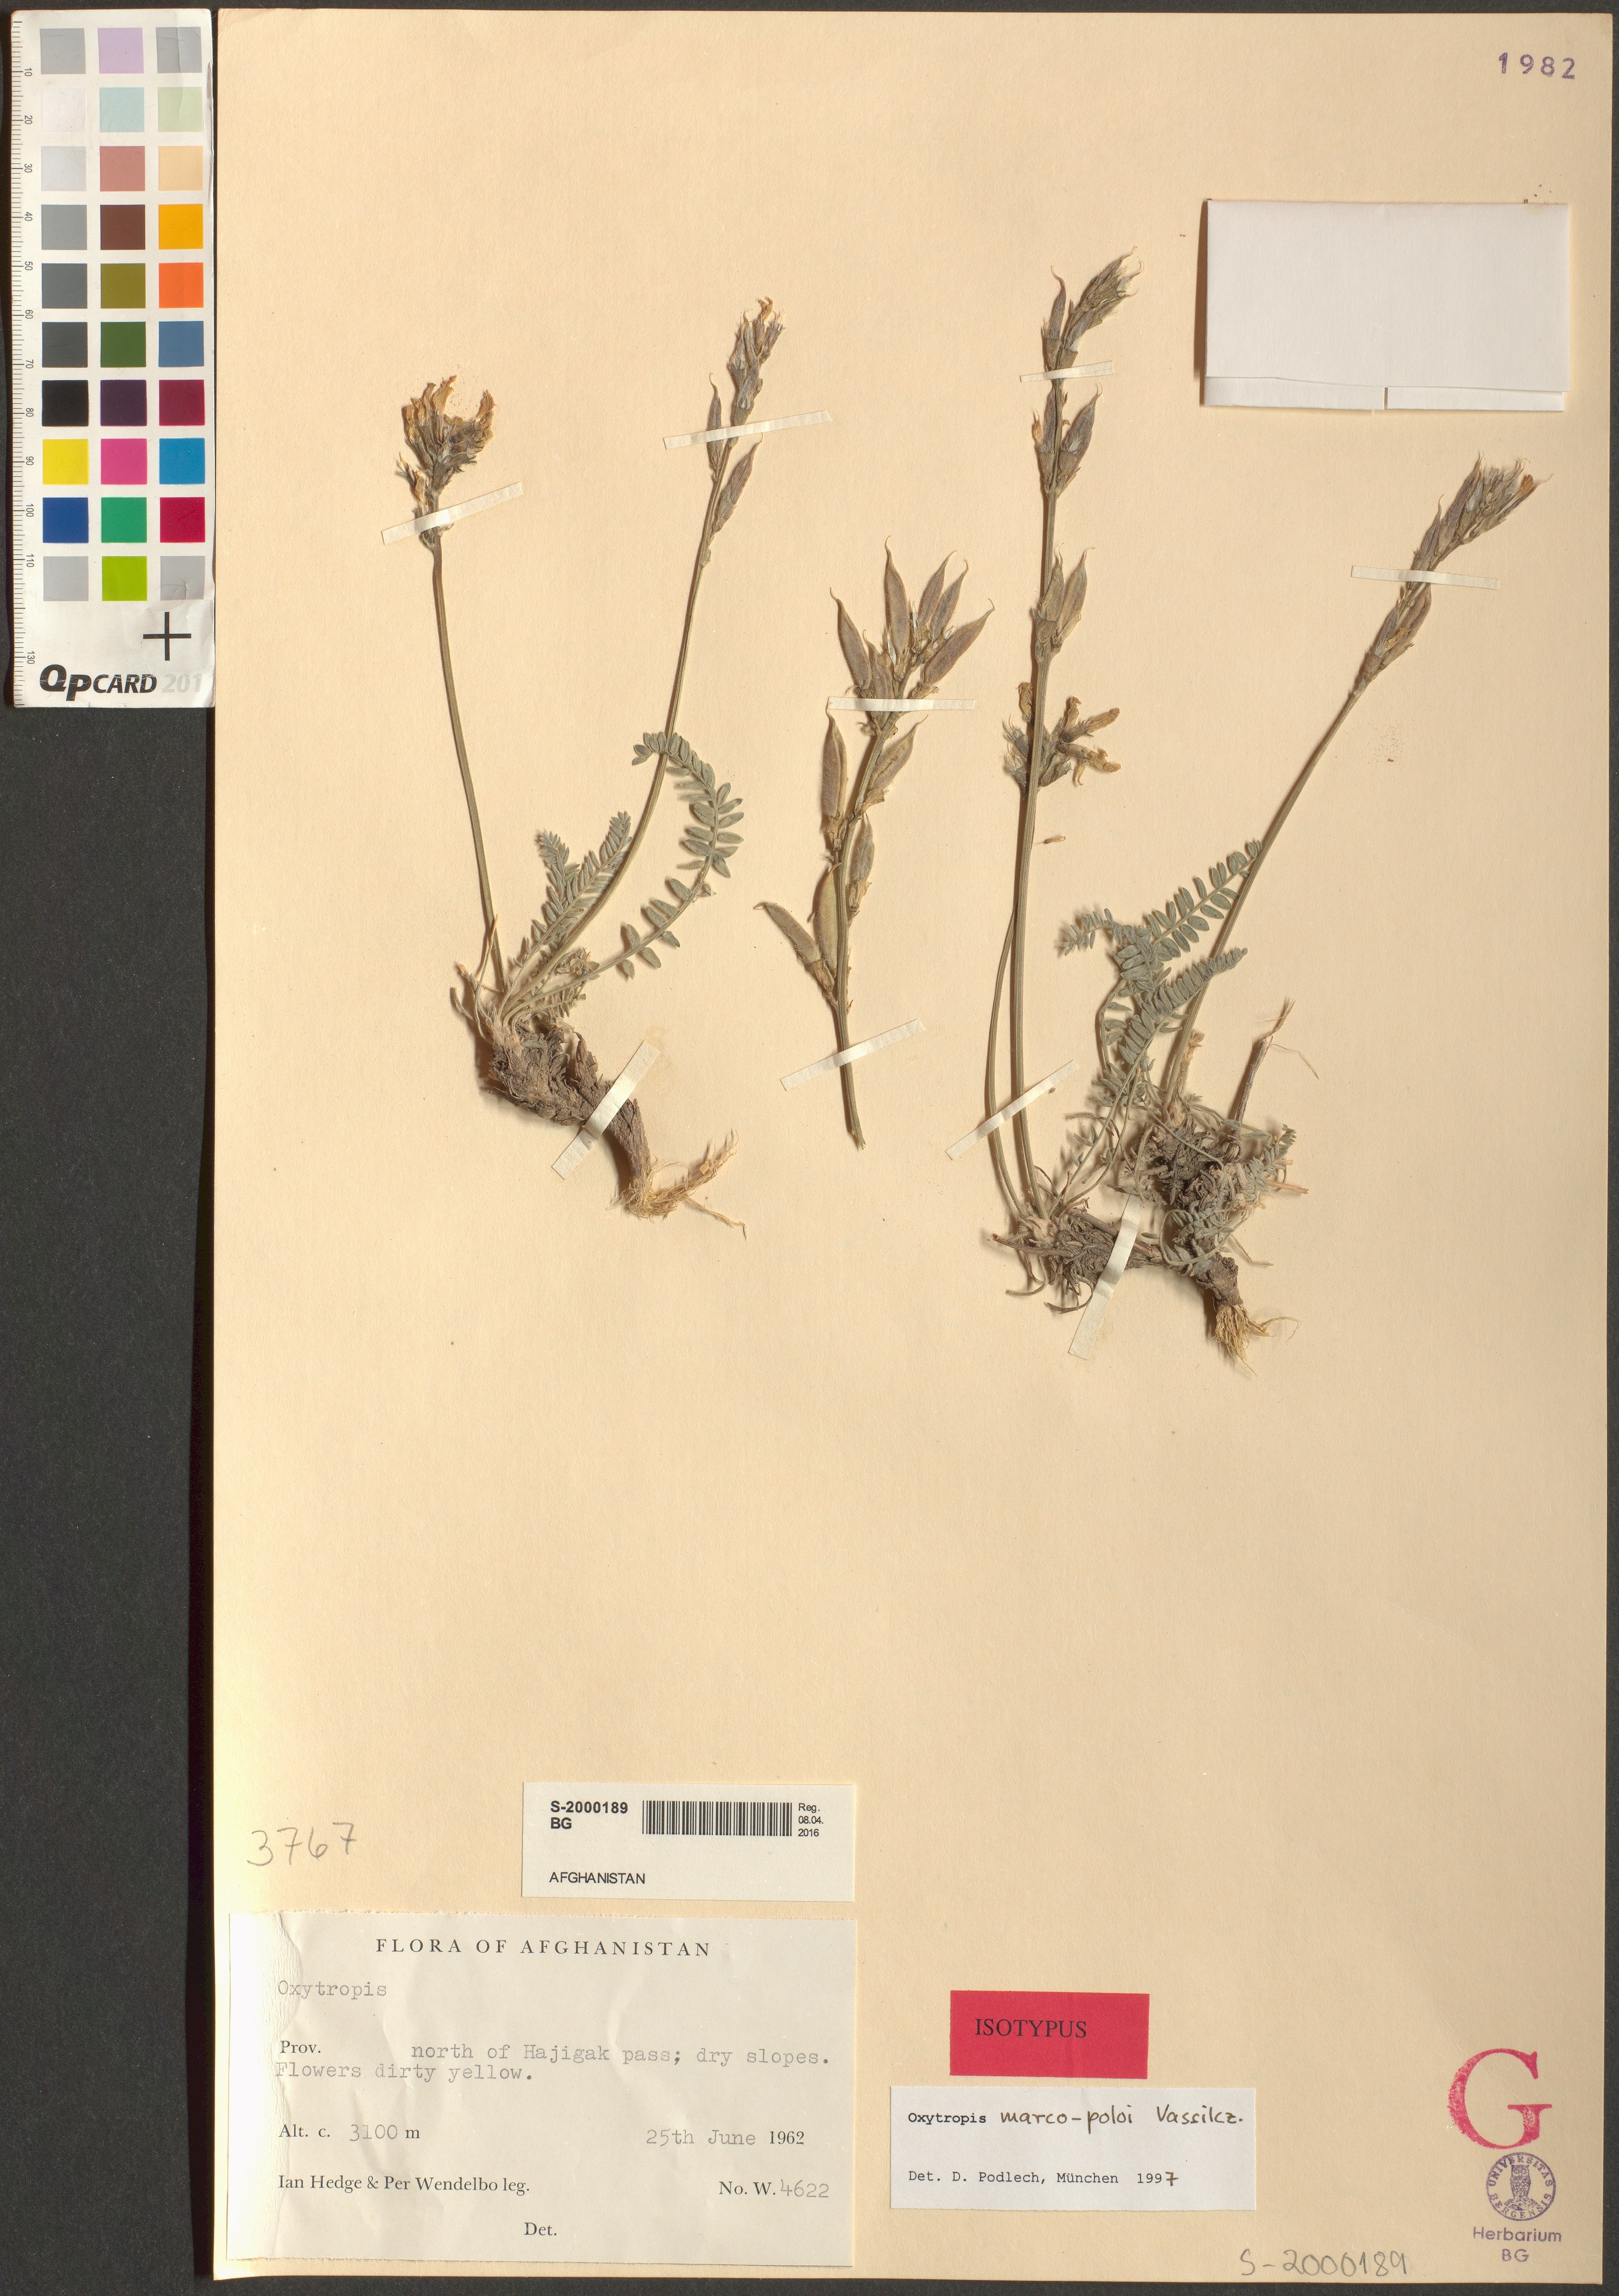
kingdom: Plantae
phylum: Tracheophyta
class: Magnoliopsida
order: Fabales
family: Fabaceae
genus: Oxytropis
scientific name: Oxytropis marco-poloi
